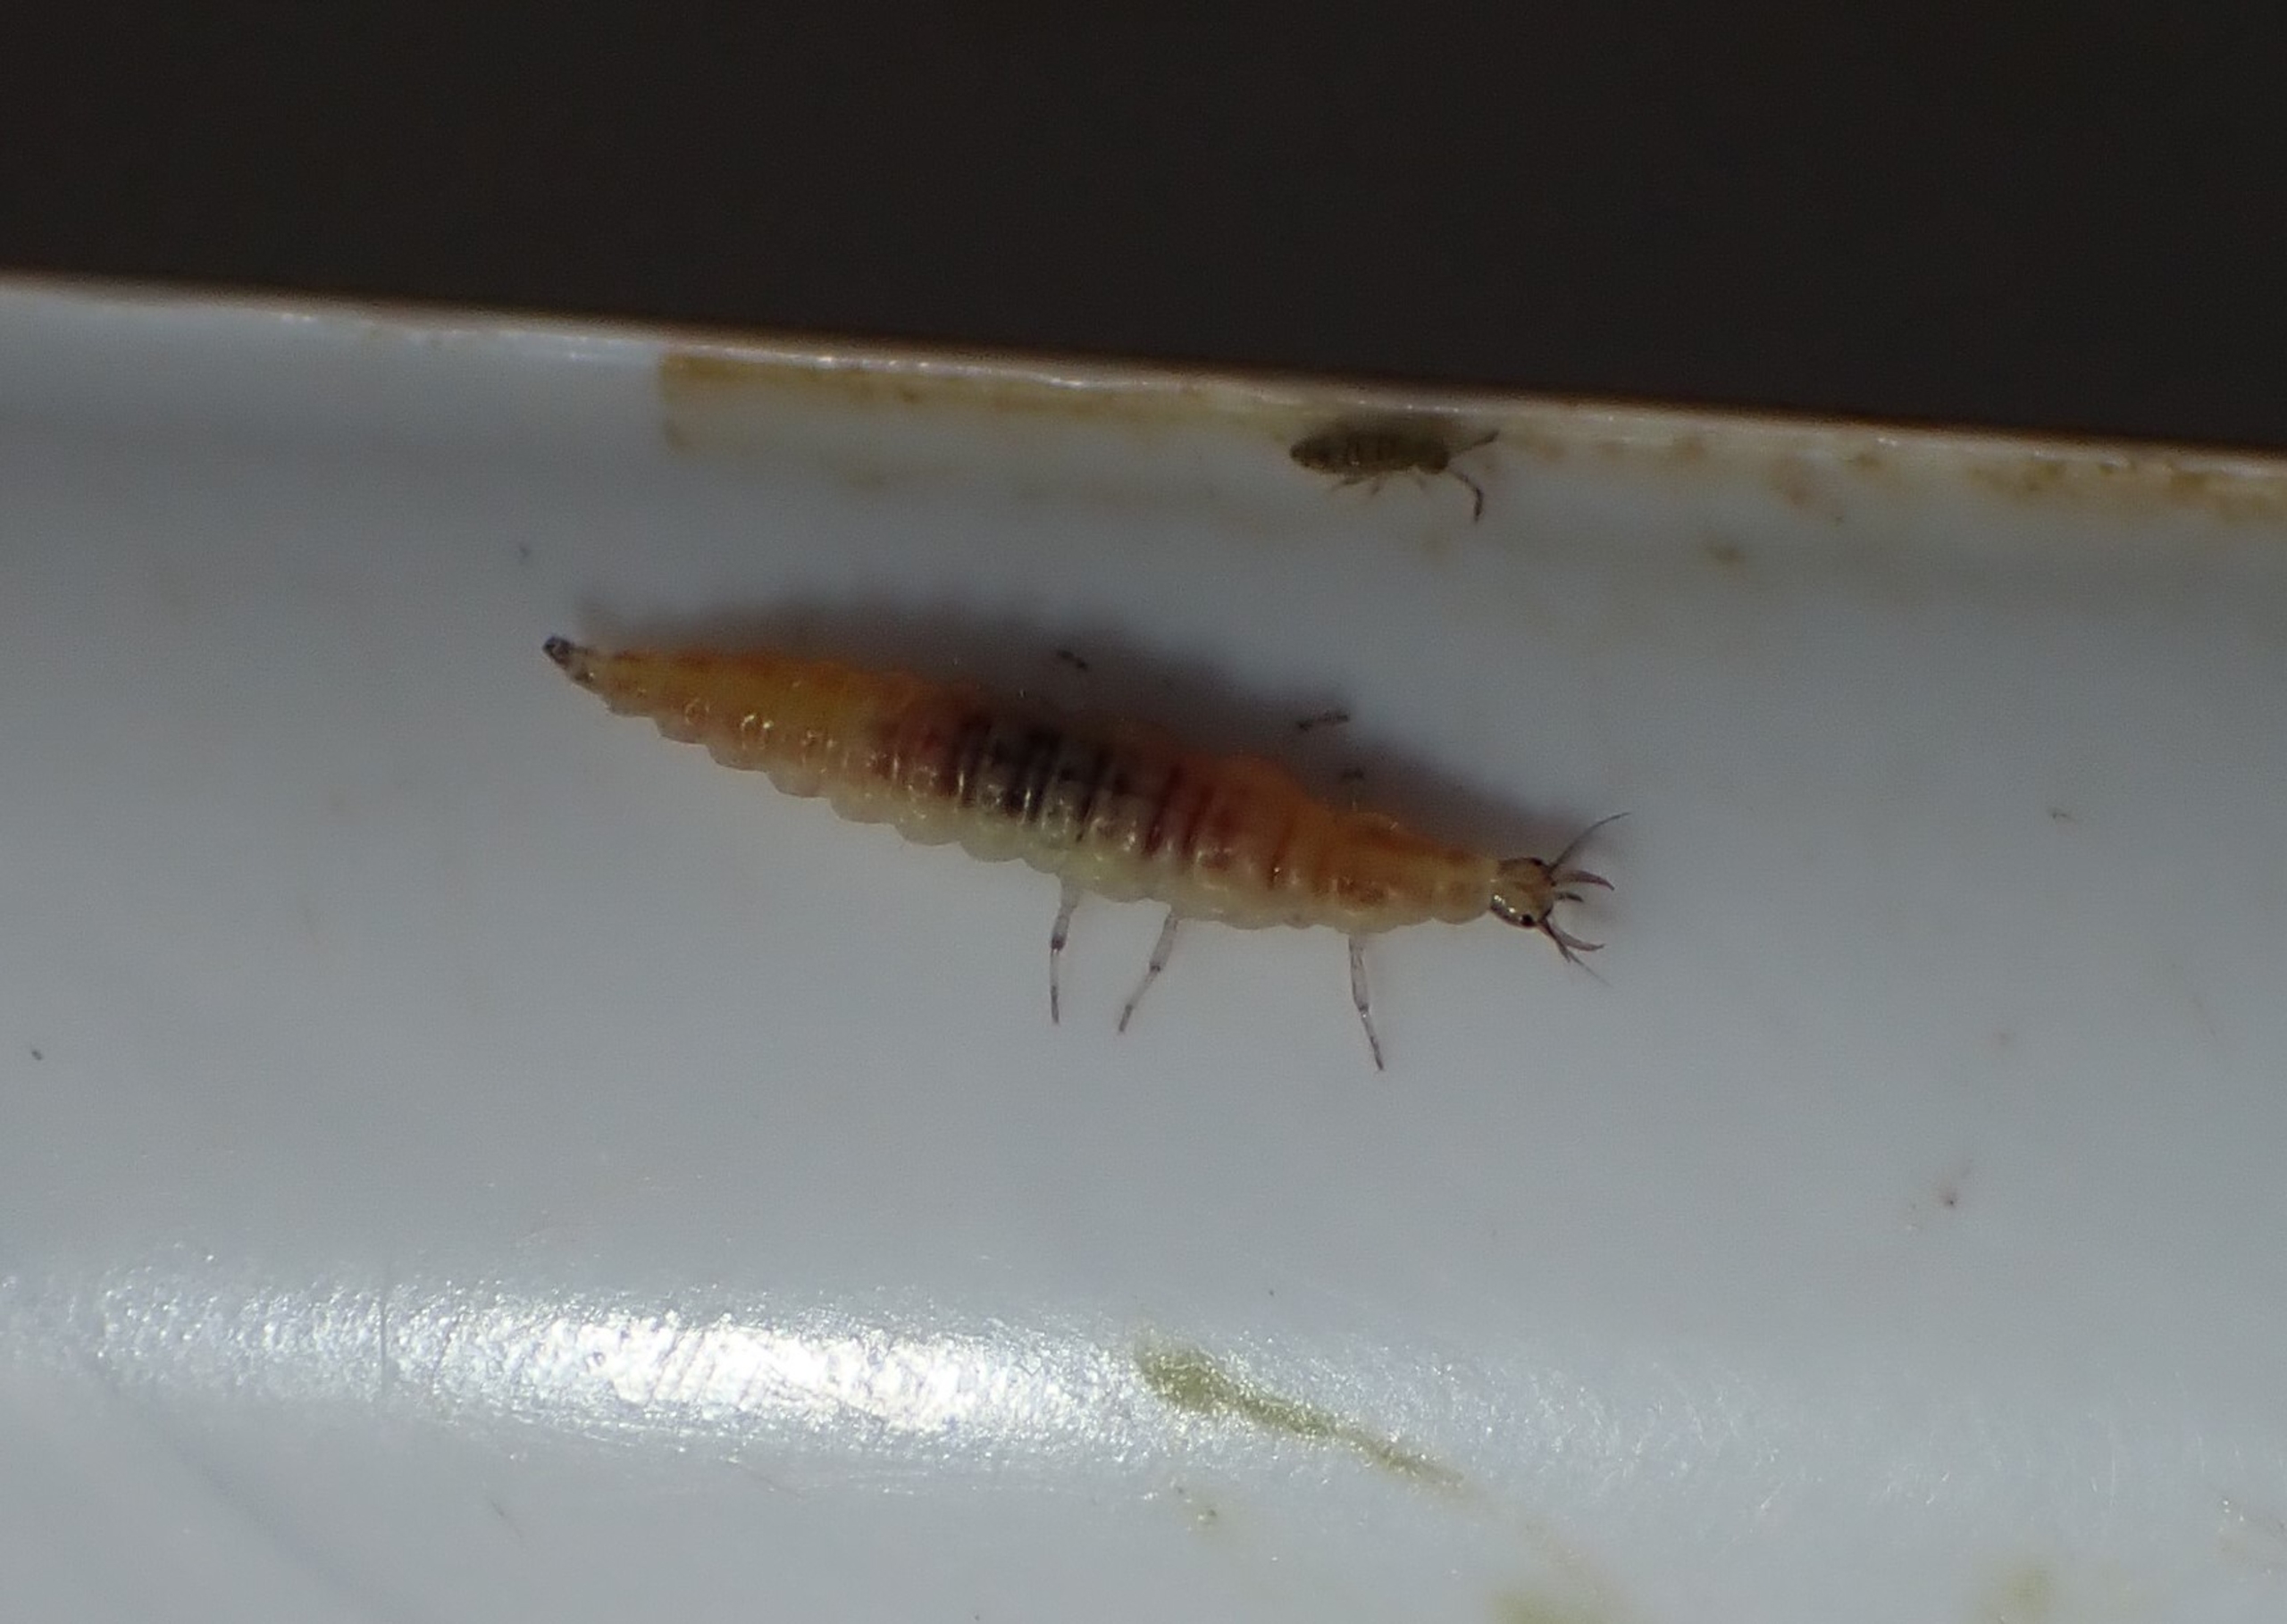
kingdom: Animalia
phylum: Arthropoda
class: Insecta
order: Neuroptera
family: Hemerobiidae
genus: Hemerobius
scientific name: Hemerobius humulinus
